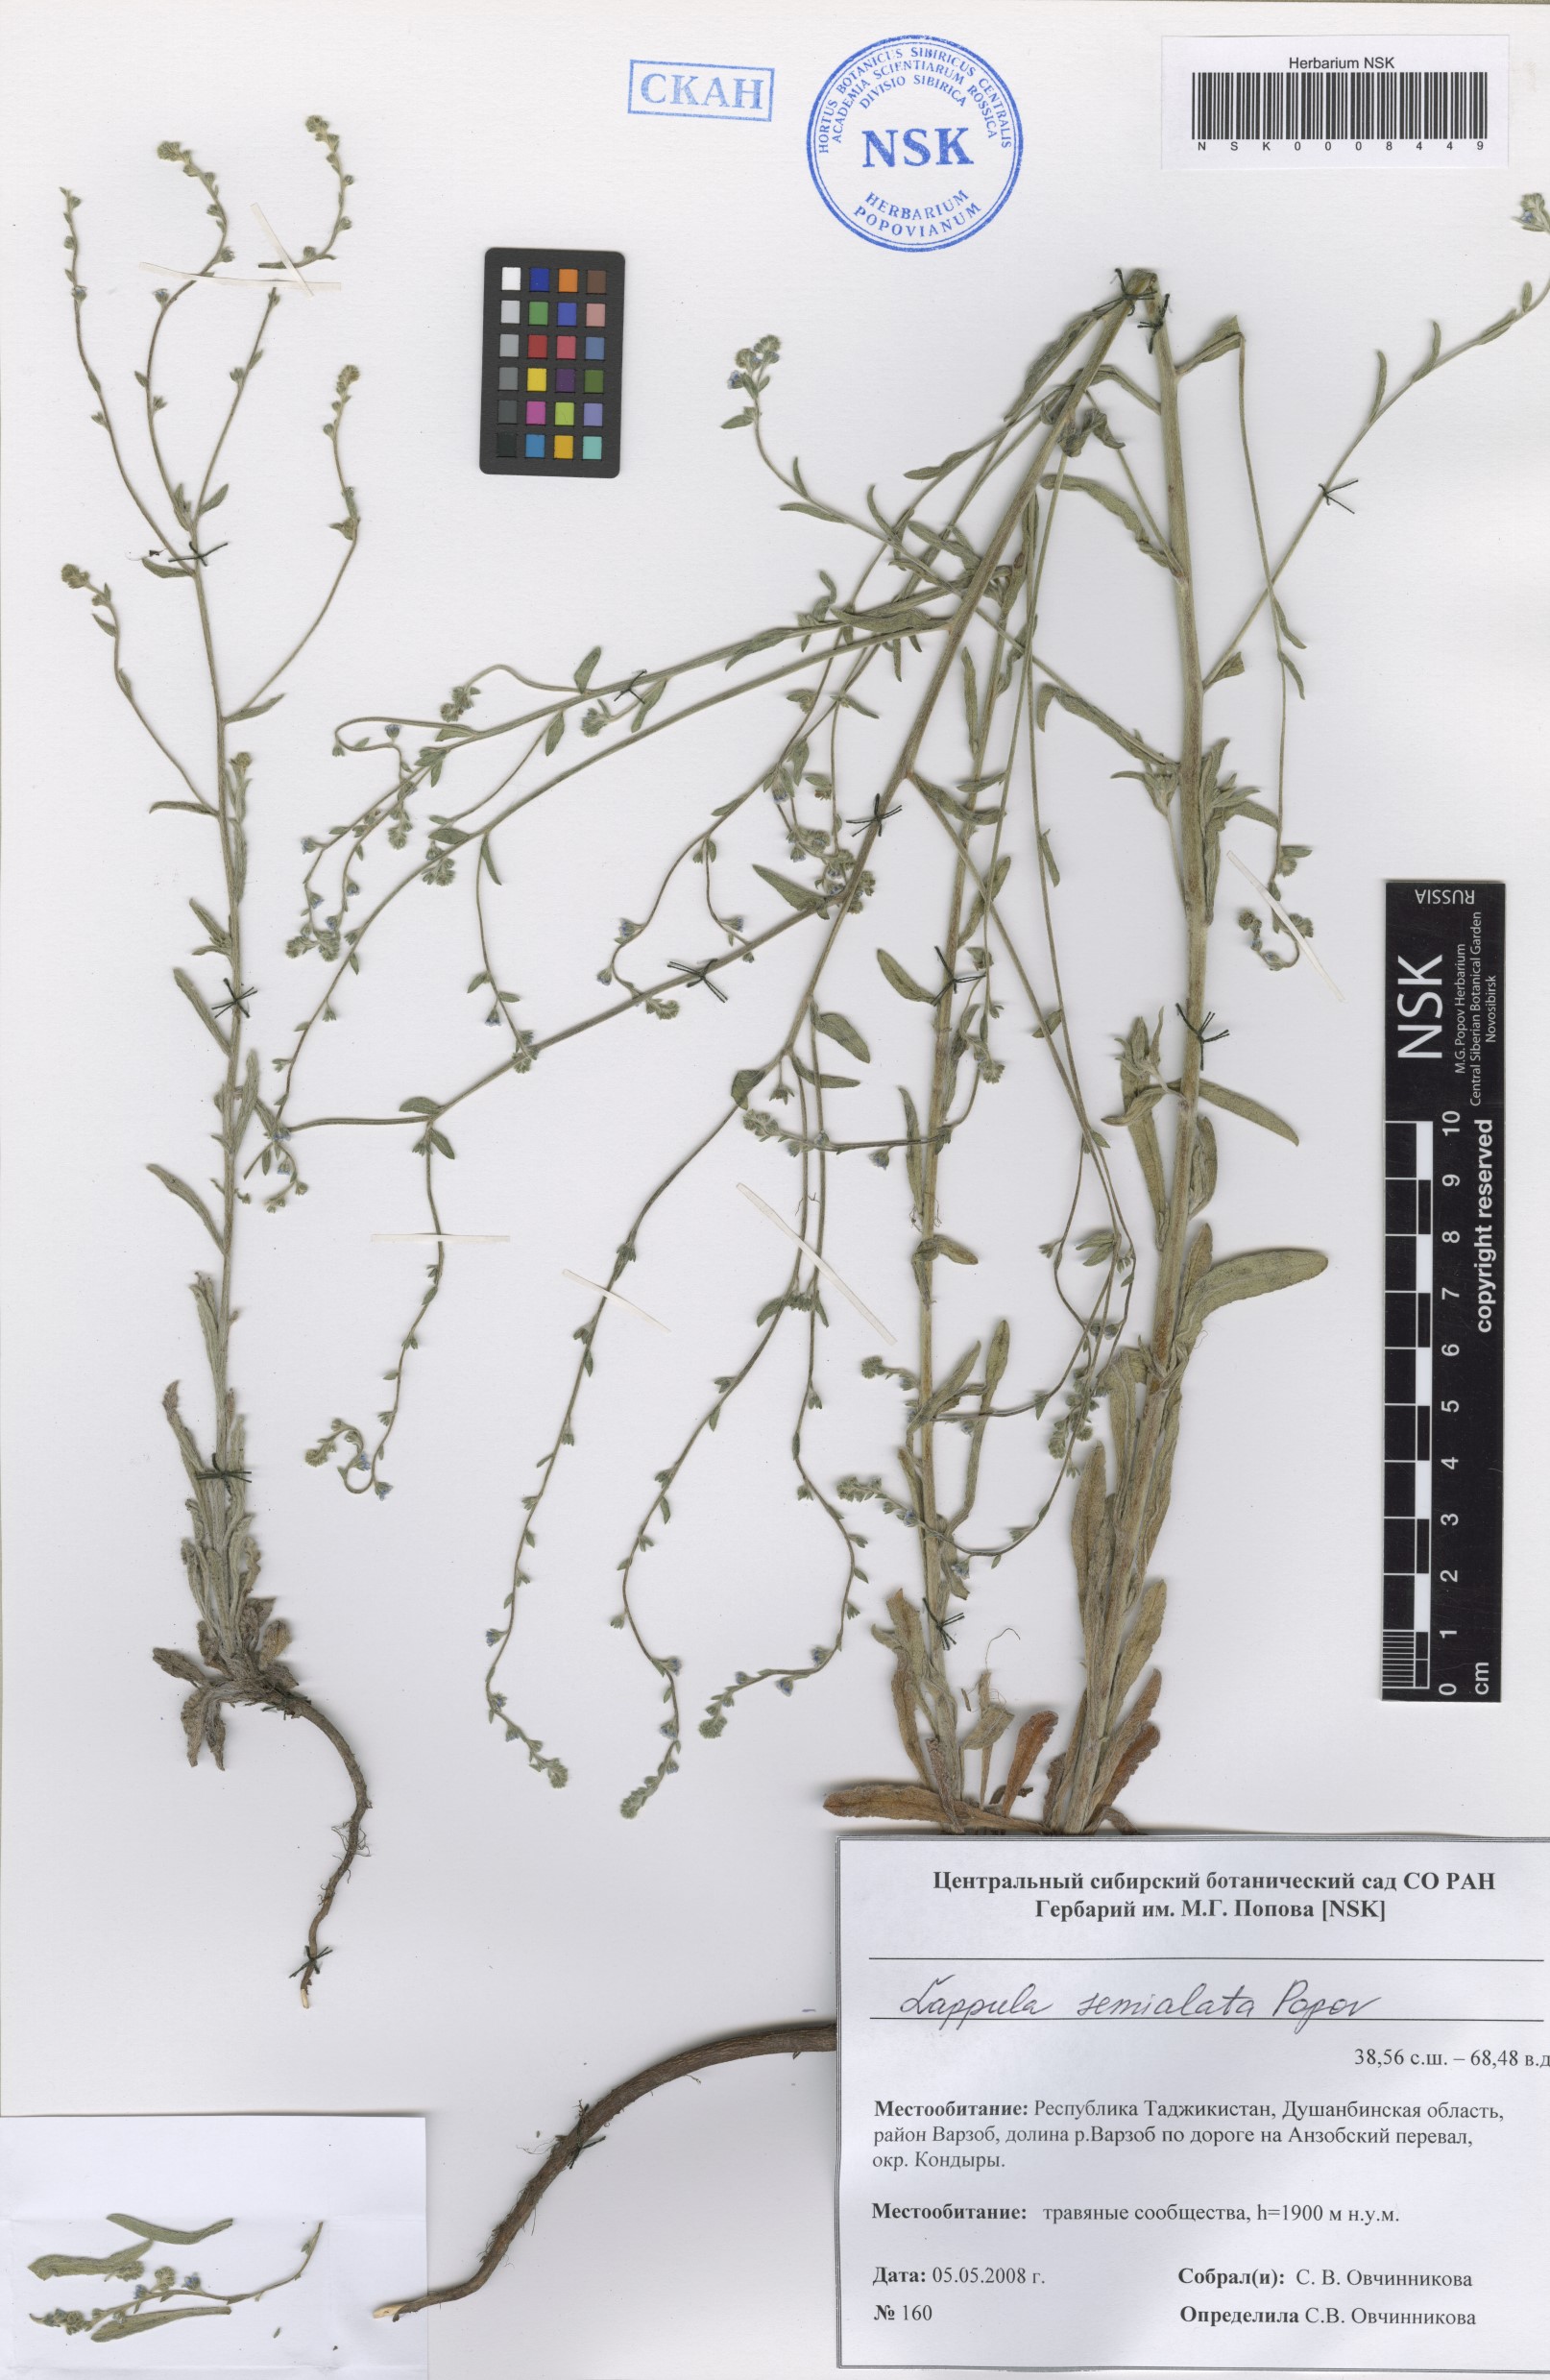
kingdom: Plantae
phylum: Tracheophyta
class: Magnoliopsida
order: Boraginales
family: Boraginaceae
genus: Lappula
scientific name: Lappula semialata
